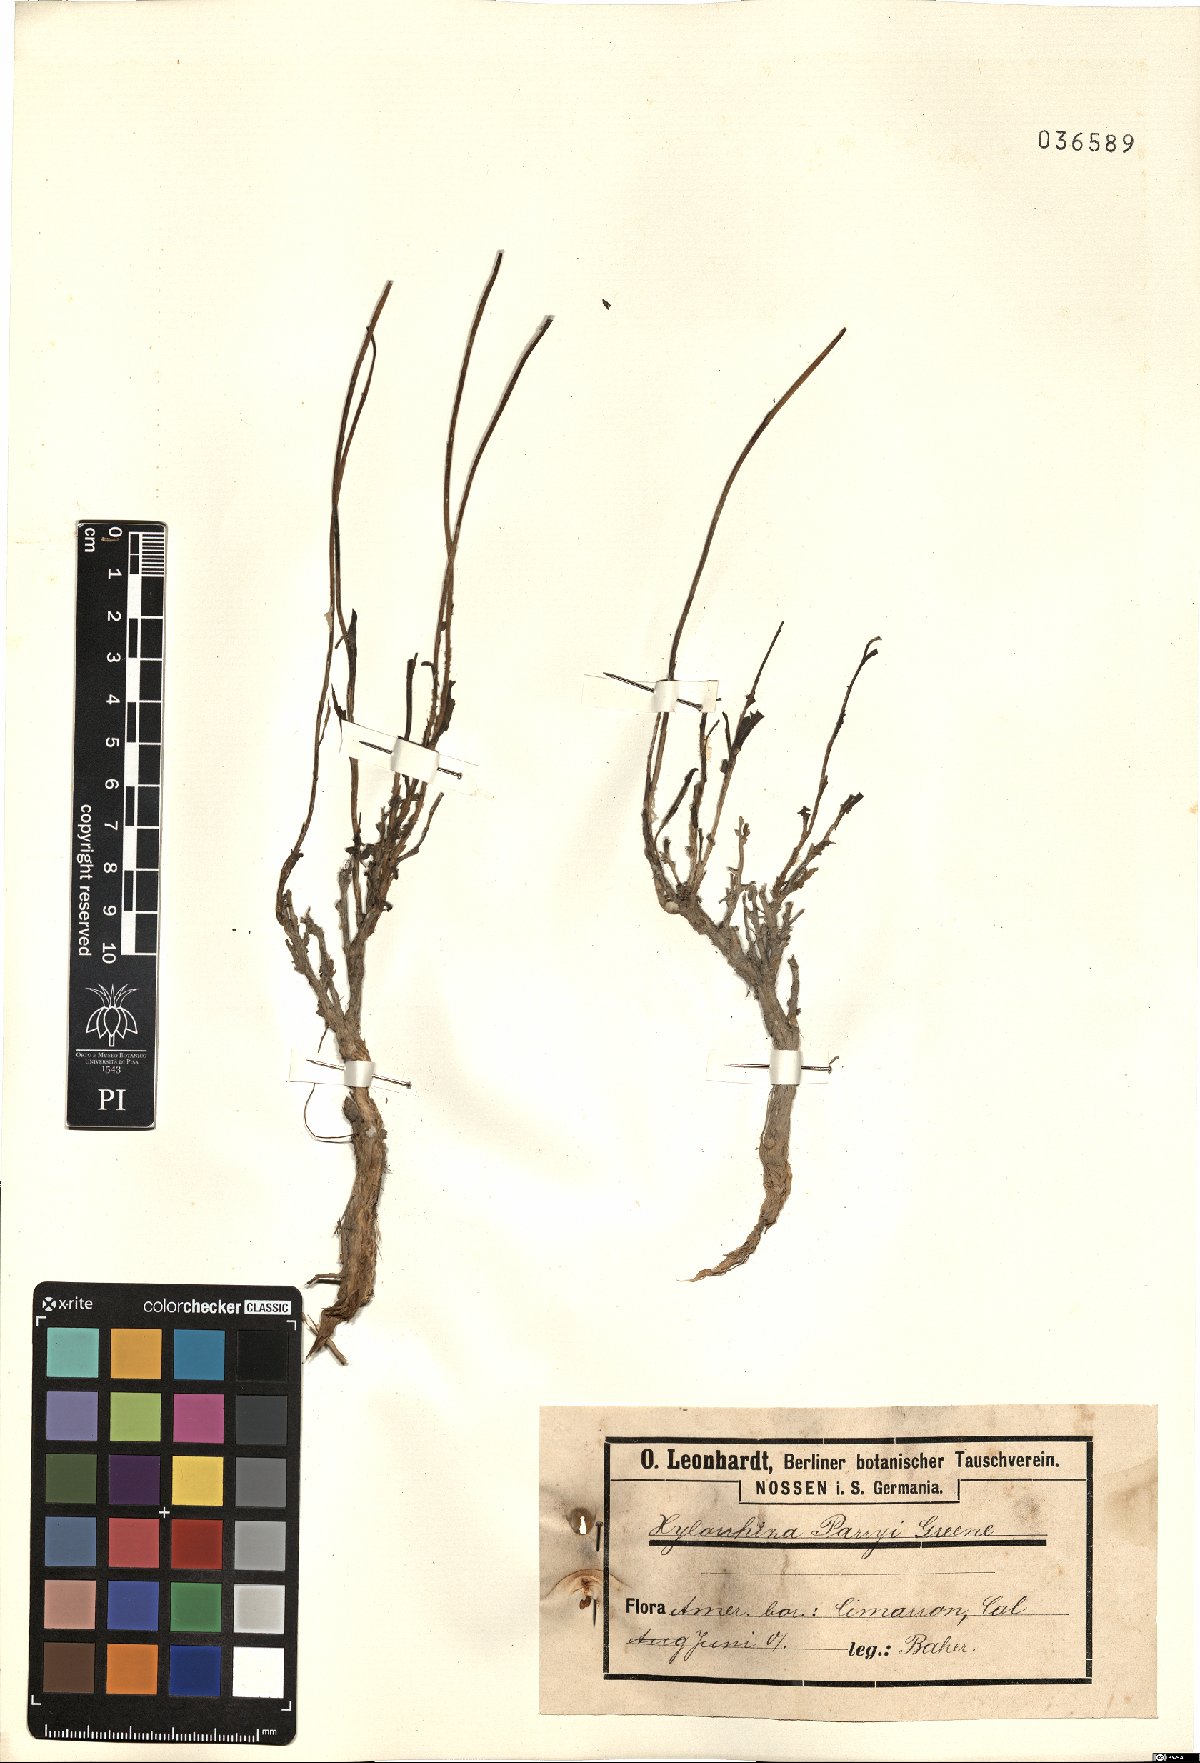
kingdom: Plantae
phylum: Tracheophyta
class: Magnoliopsida
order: Asterales
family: Asteraceae
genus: Xylorhiza
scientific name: Xylorhiza glabriuscula
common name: Smooth woody-aster
